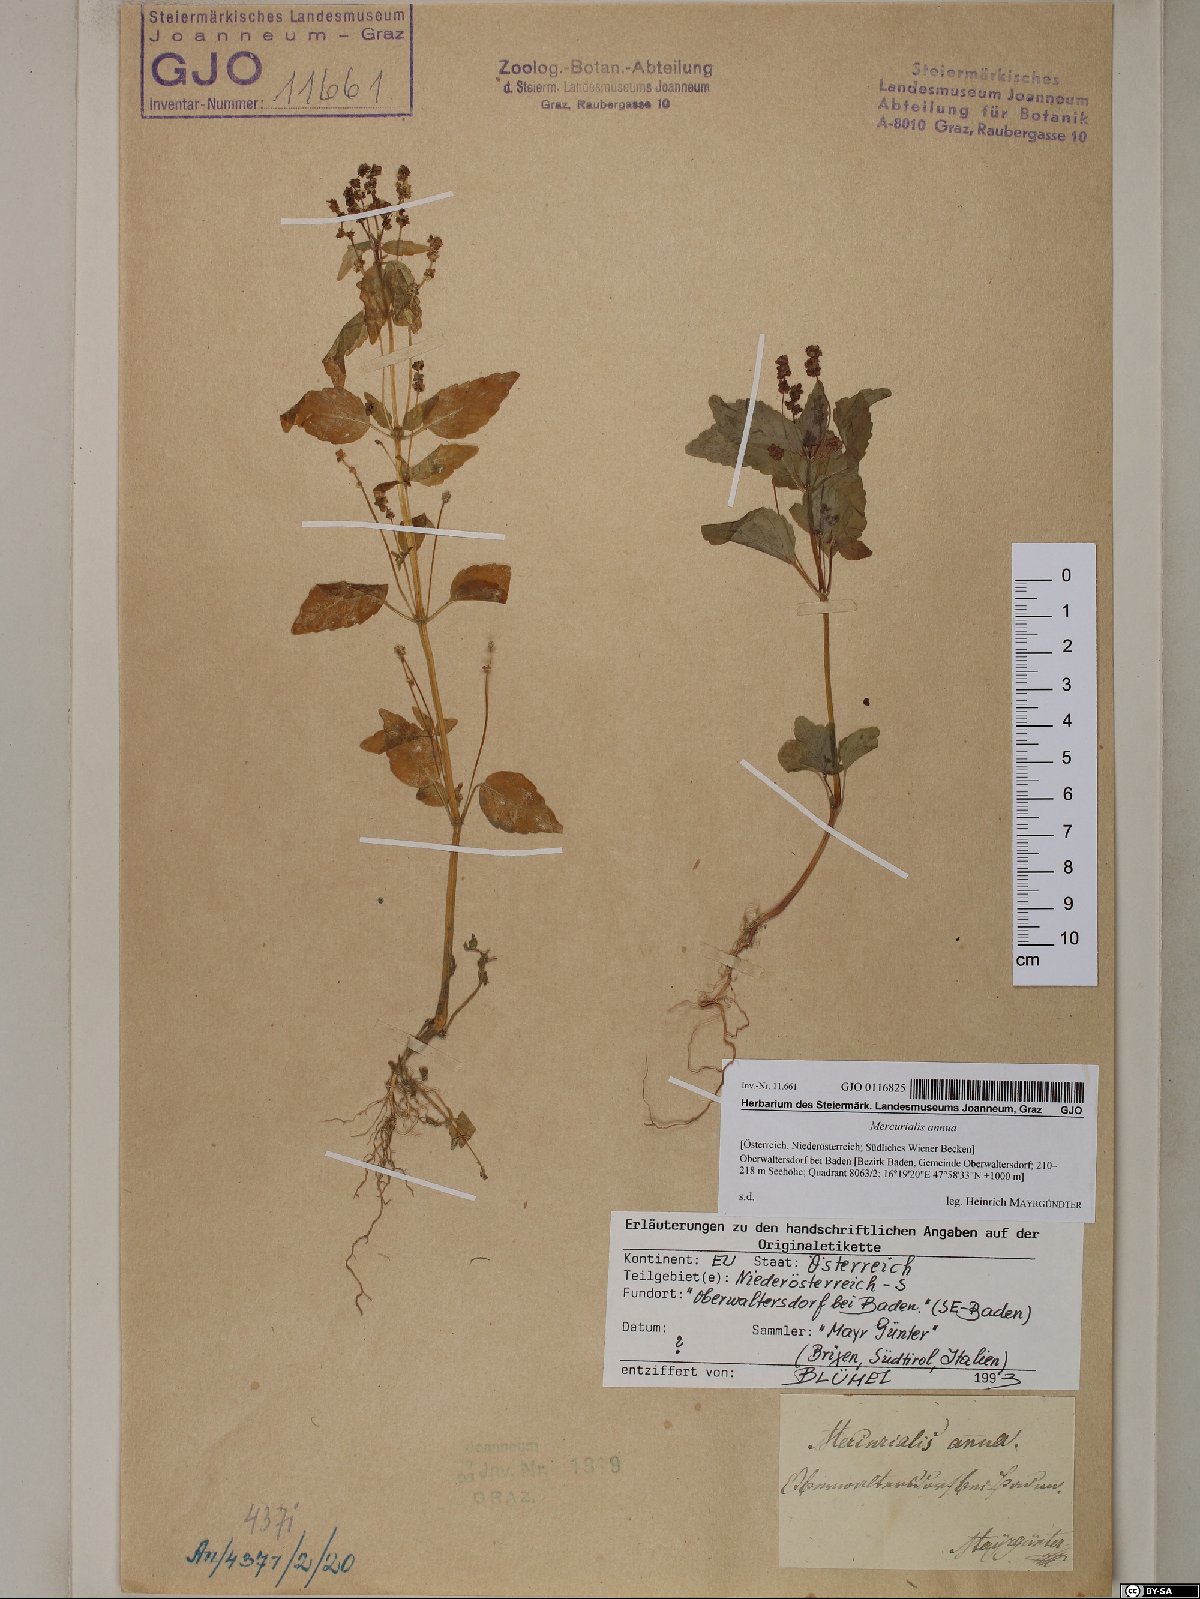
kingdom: Plantae
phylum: Tracheophyta
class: Magnoliopsida
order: Malpighiales
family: Euphorbiaceae
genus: Mercurialis
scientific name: Mercurialis annua
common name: Annual mercury
